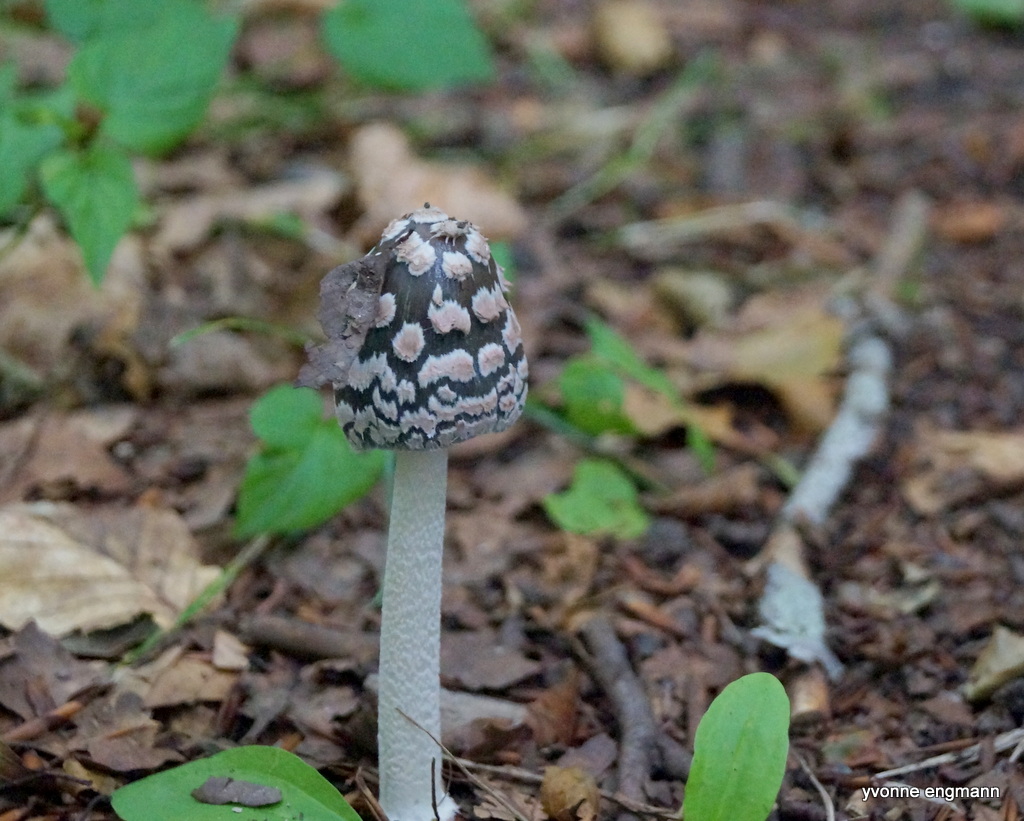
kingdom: Fungi
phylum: Basidiomycota
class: Agaricomycetes
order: Agaricales
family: Psathyrellaceae
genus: Coprinopsis
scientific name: Coprinopsis picacea
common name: skade-blækhat
